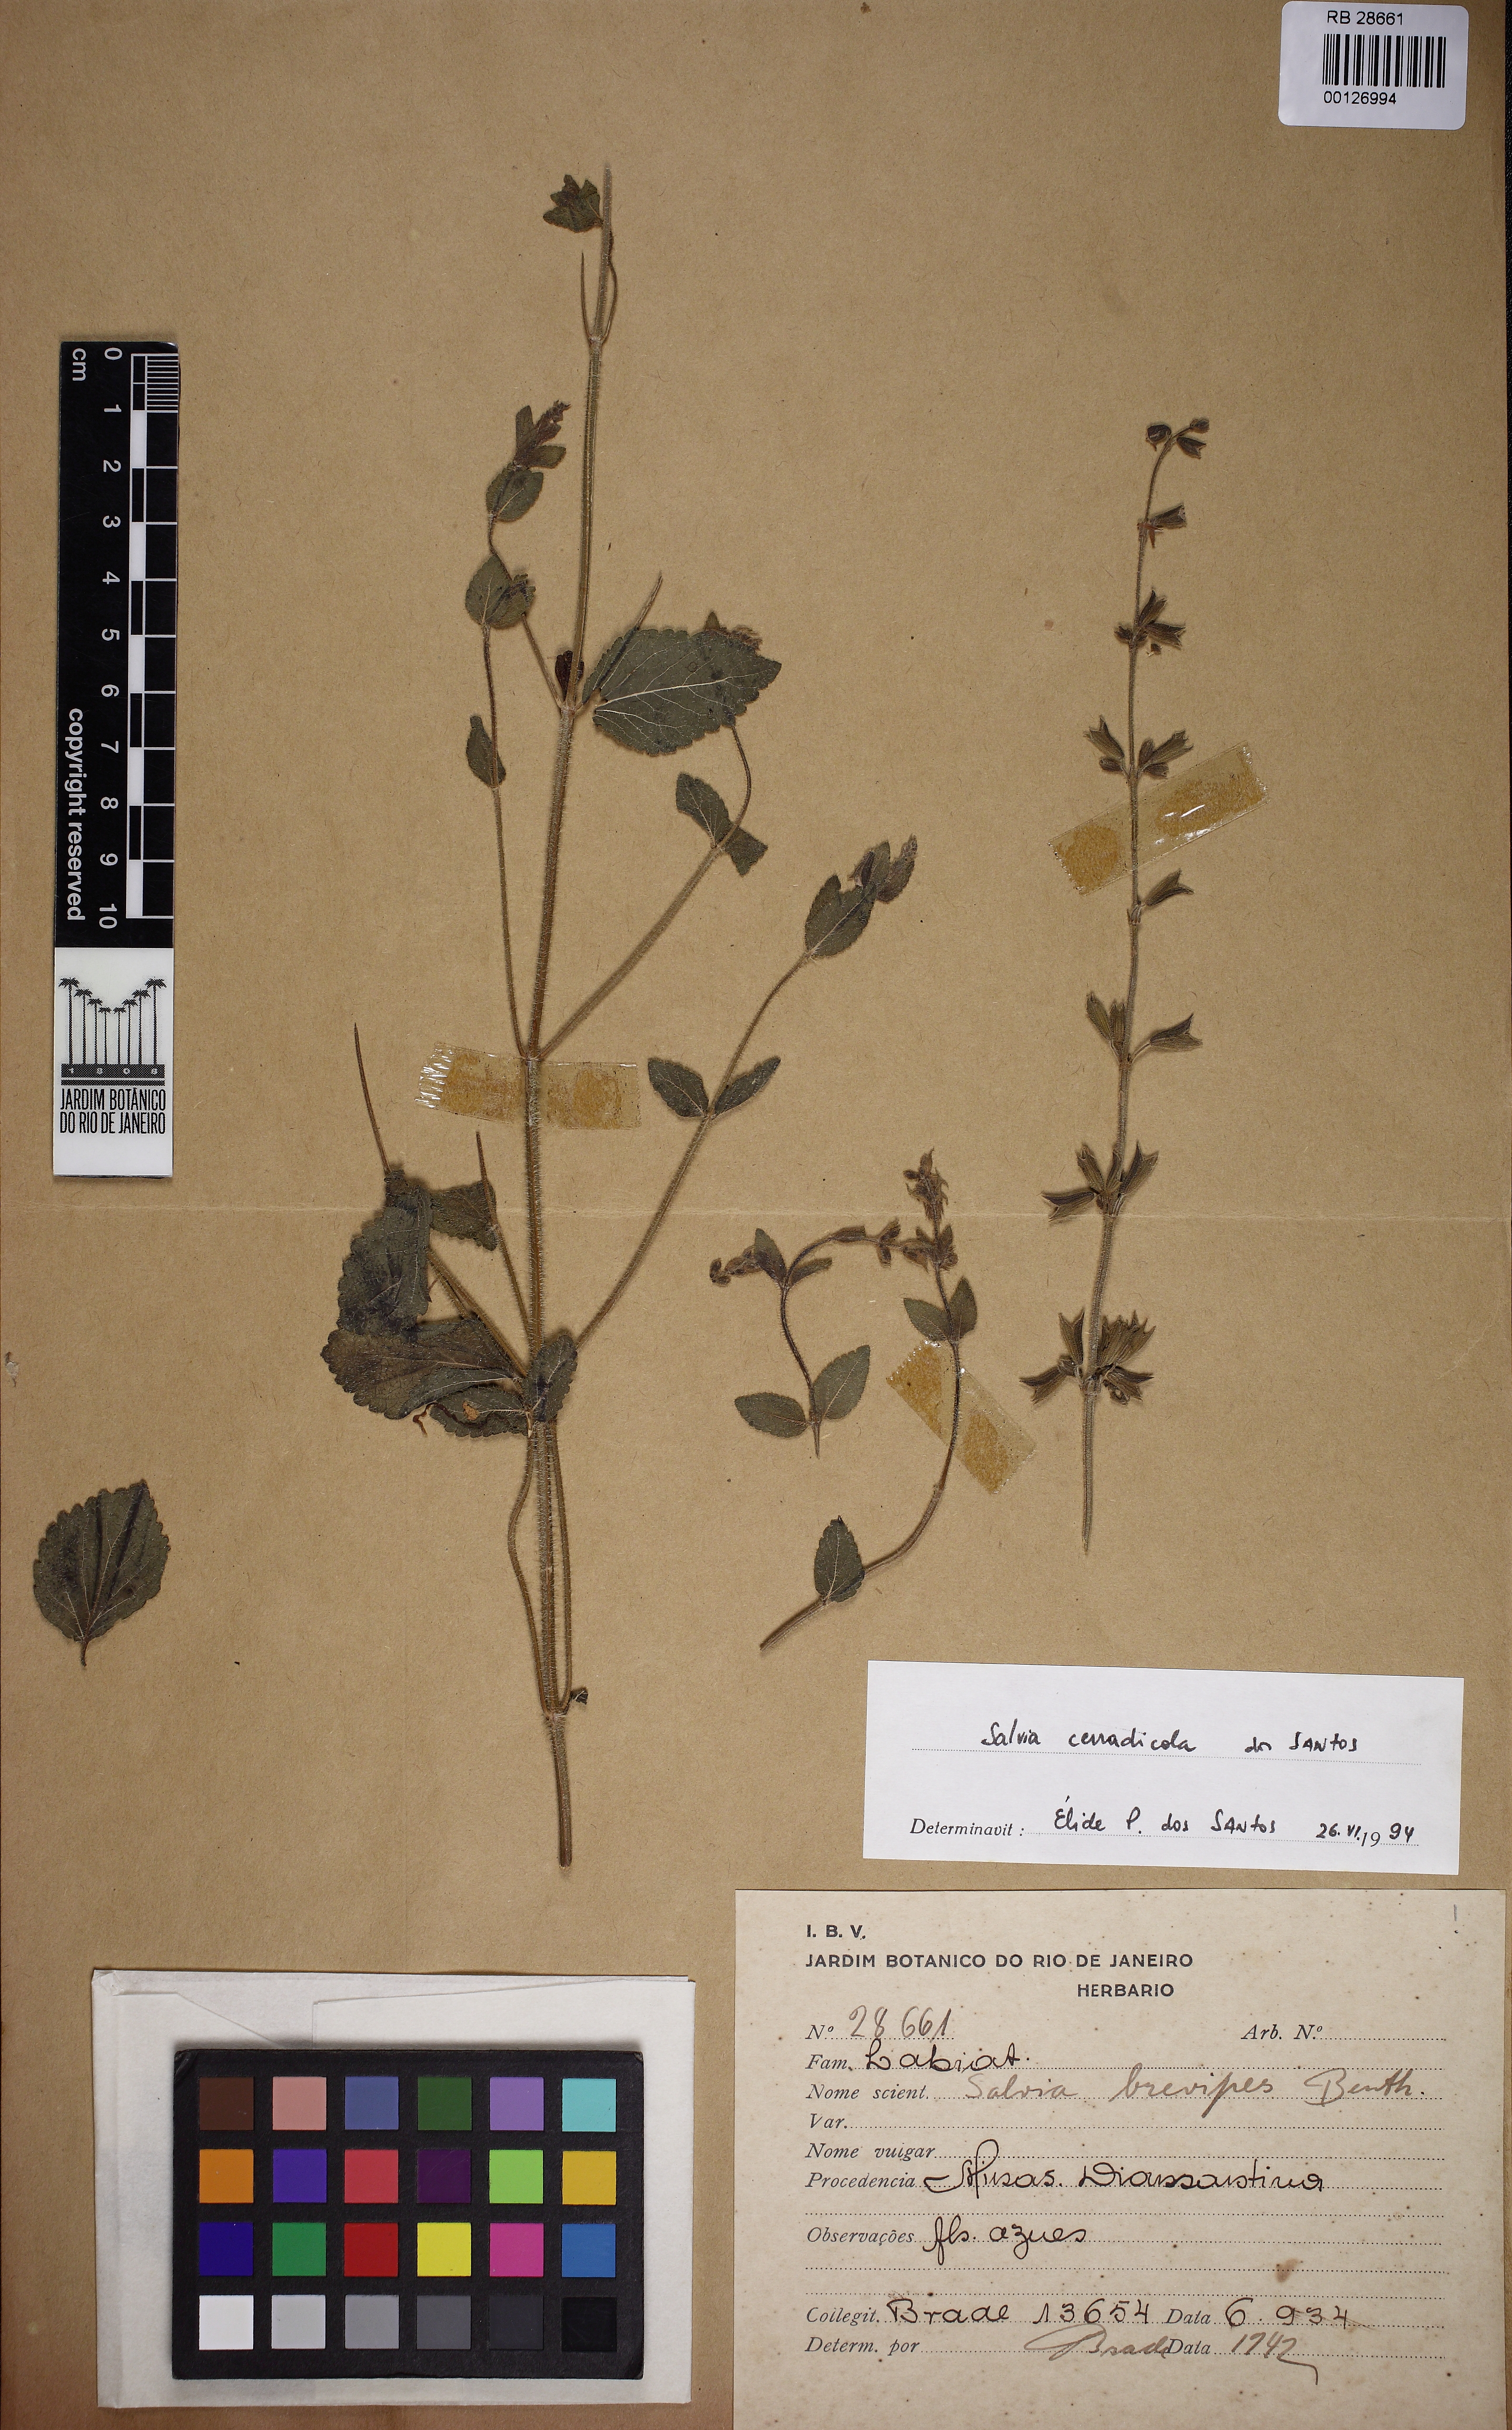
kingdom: Plantae
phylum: Tracheophyta
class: Magnoliopsida
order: Lamiales
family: Lamiaceae
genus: Salvia
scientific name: Salvia cerradicola
